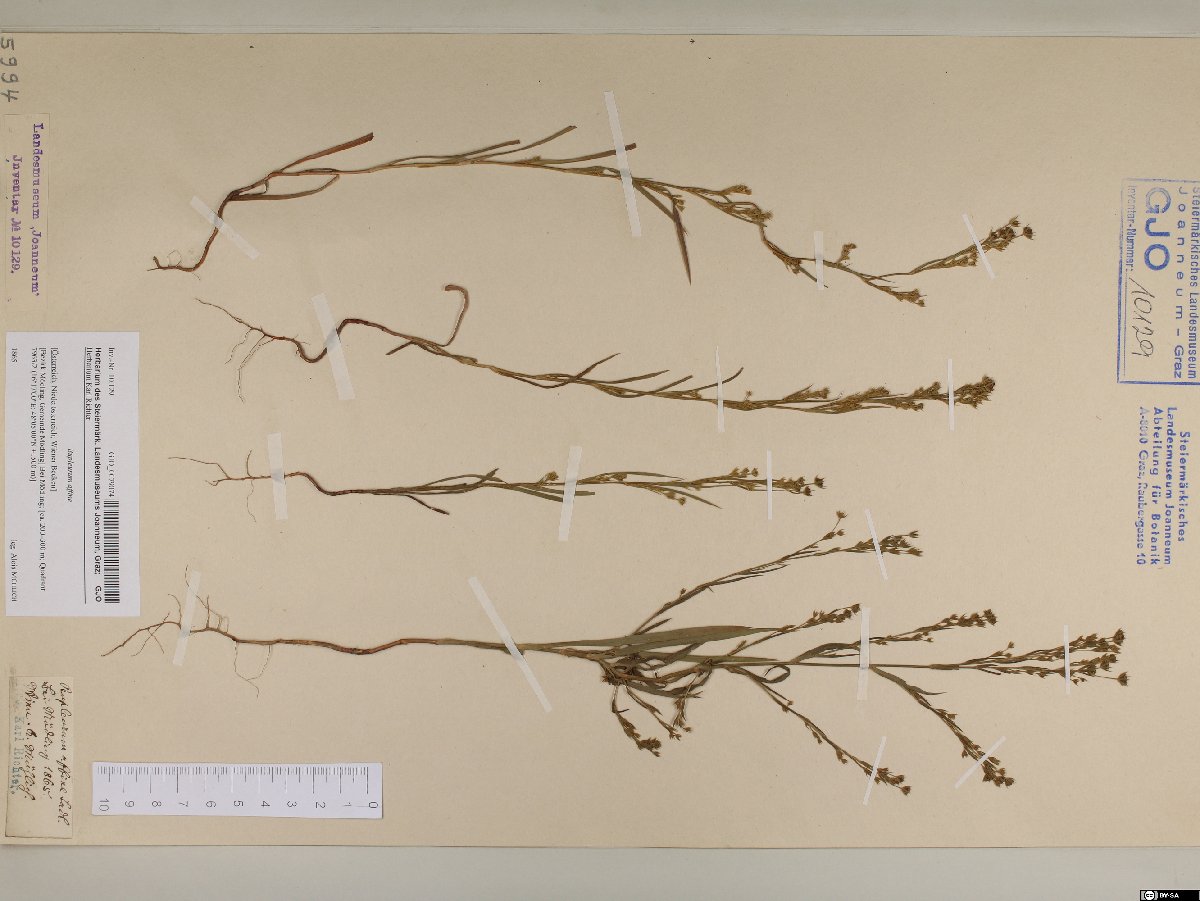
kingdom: Plantae
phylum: Tracheophyta
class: Magnoliopsida
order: Apiales
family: Apiaceae
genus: Bupleurum
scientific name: Bupleurum affine
